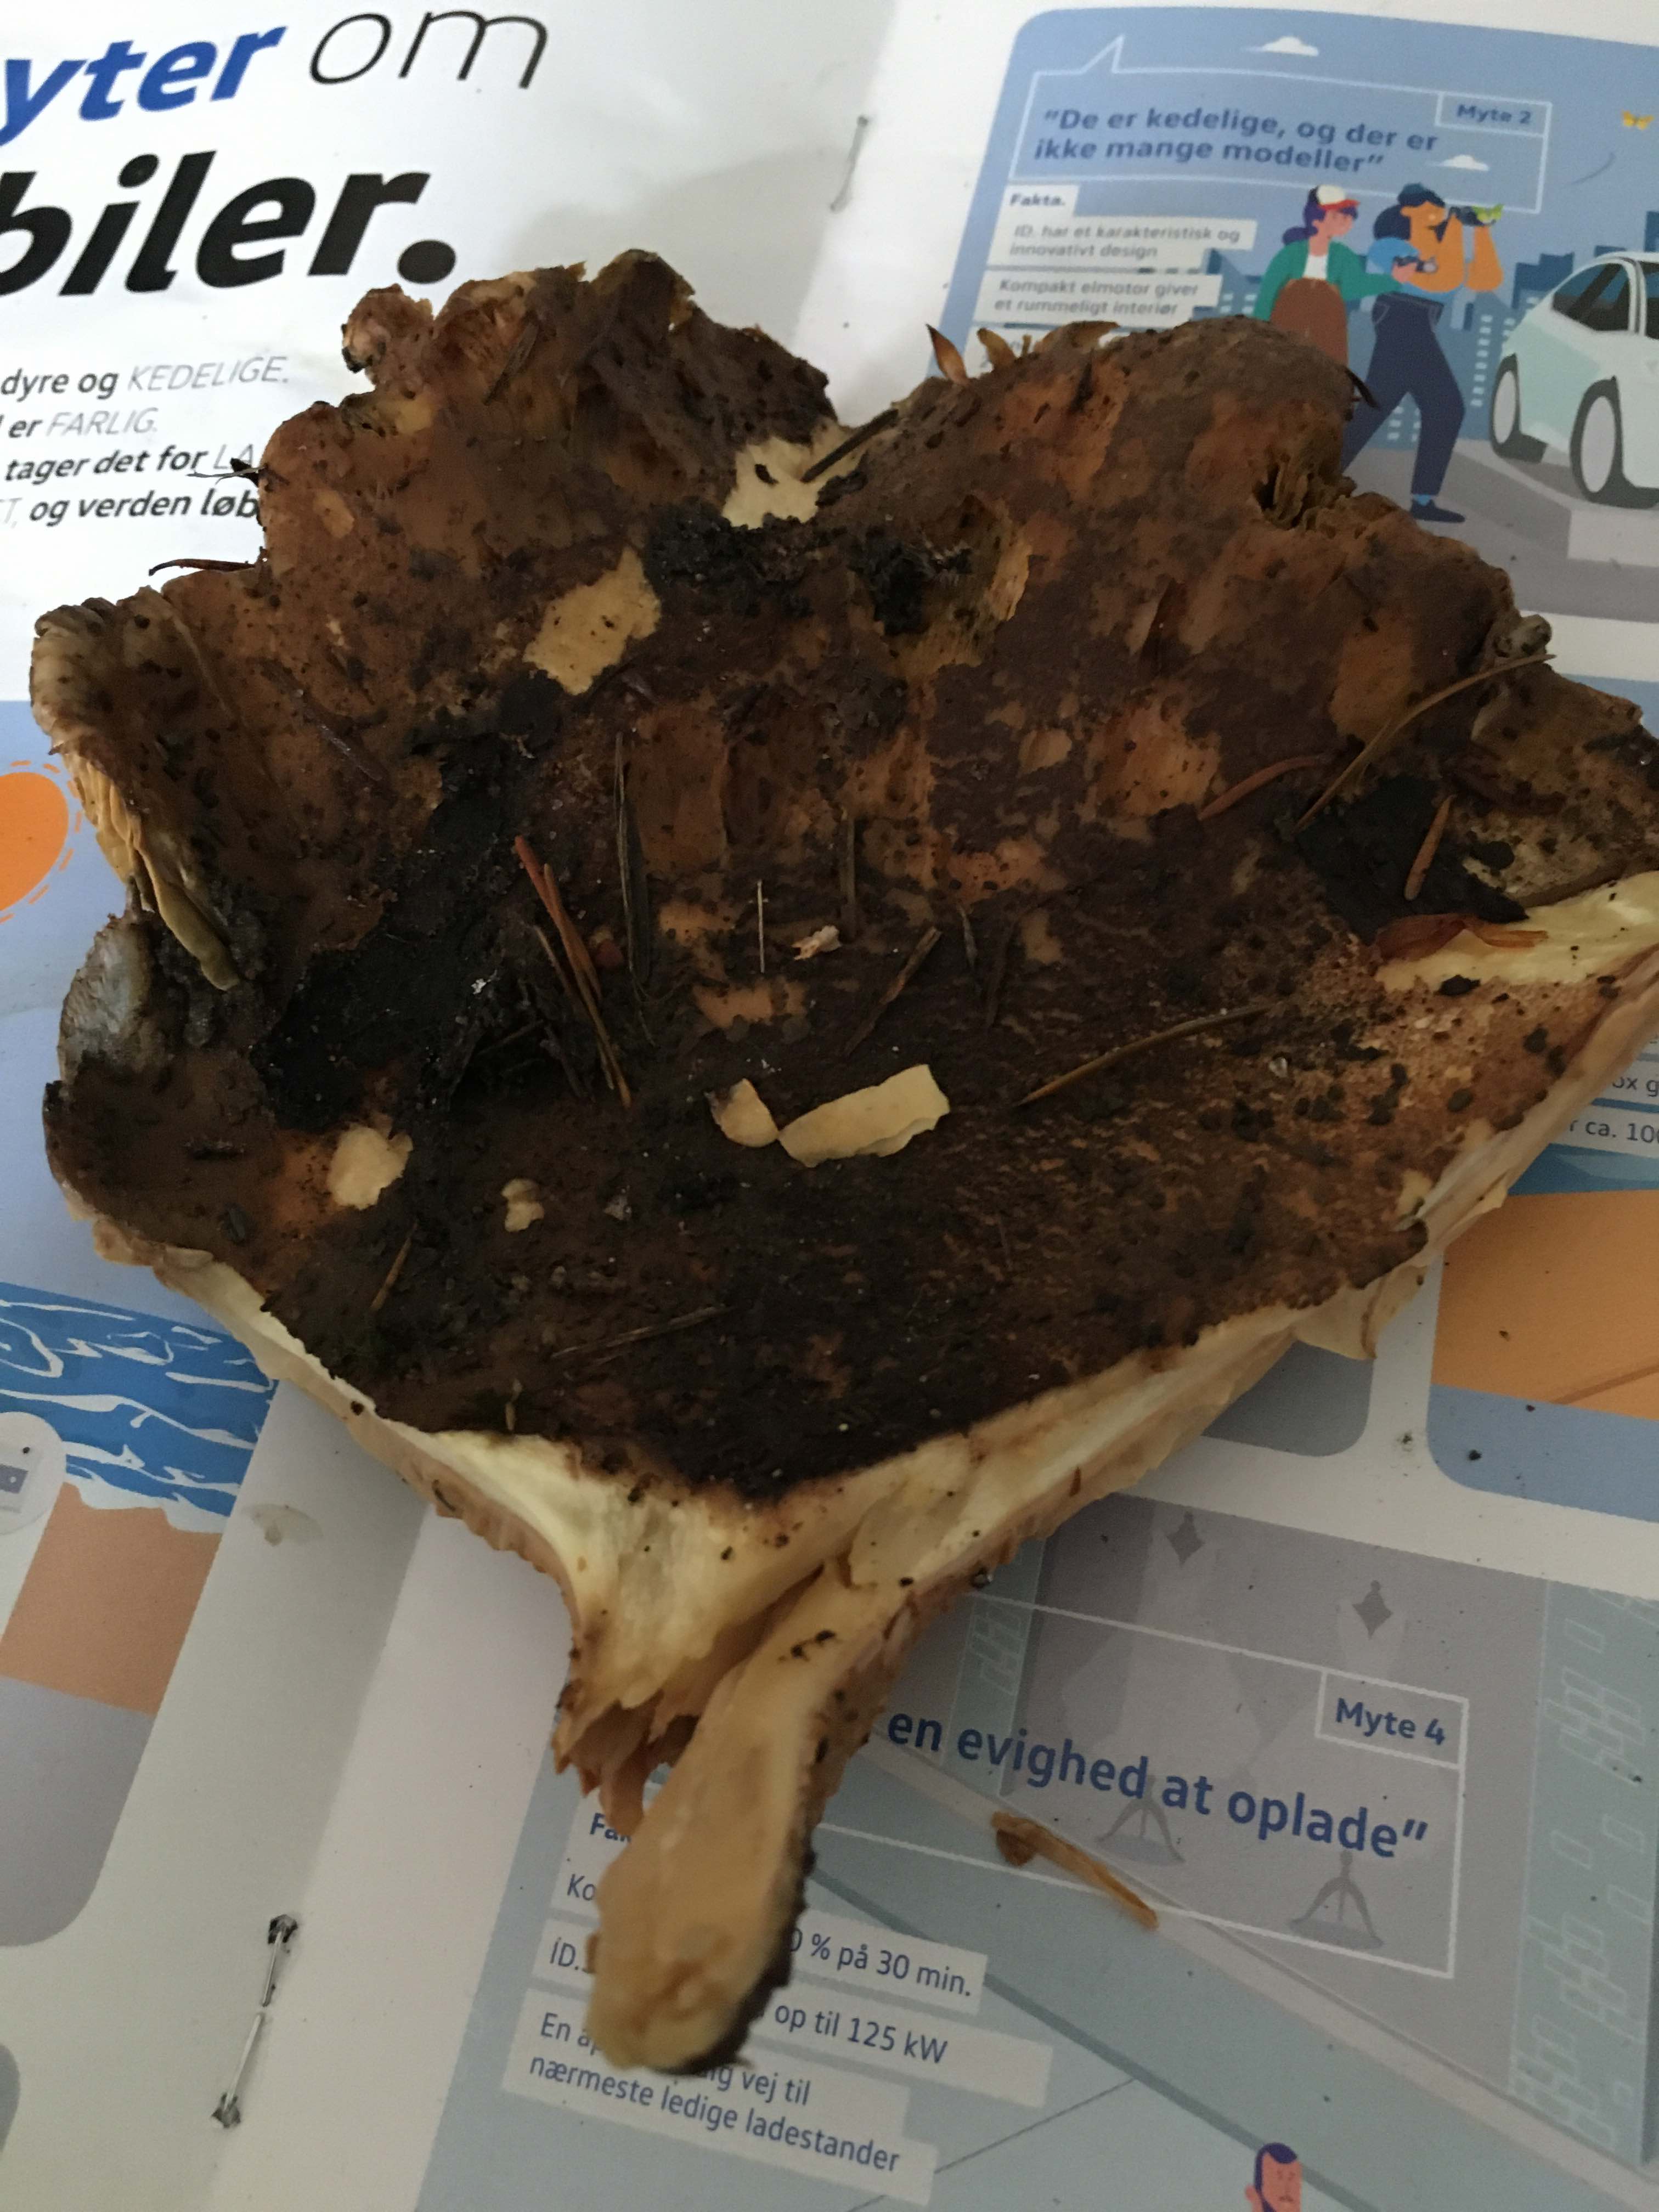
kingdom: Fungi
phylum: Basidiomycota
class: Agaricomycetes
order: Boletales
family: Tapinellaceae
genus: Tapinella
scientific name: Tapinella atrotomentosa
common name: sortfiltet viftesvamp
